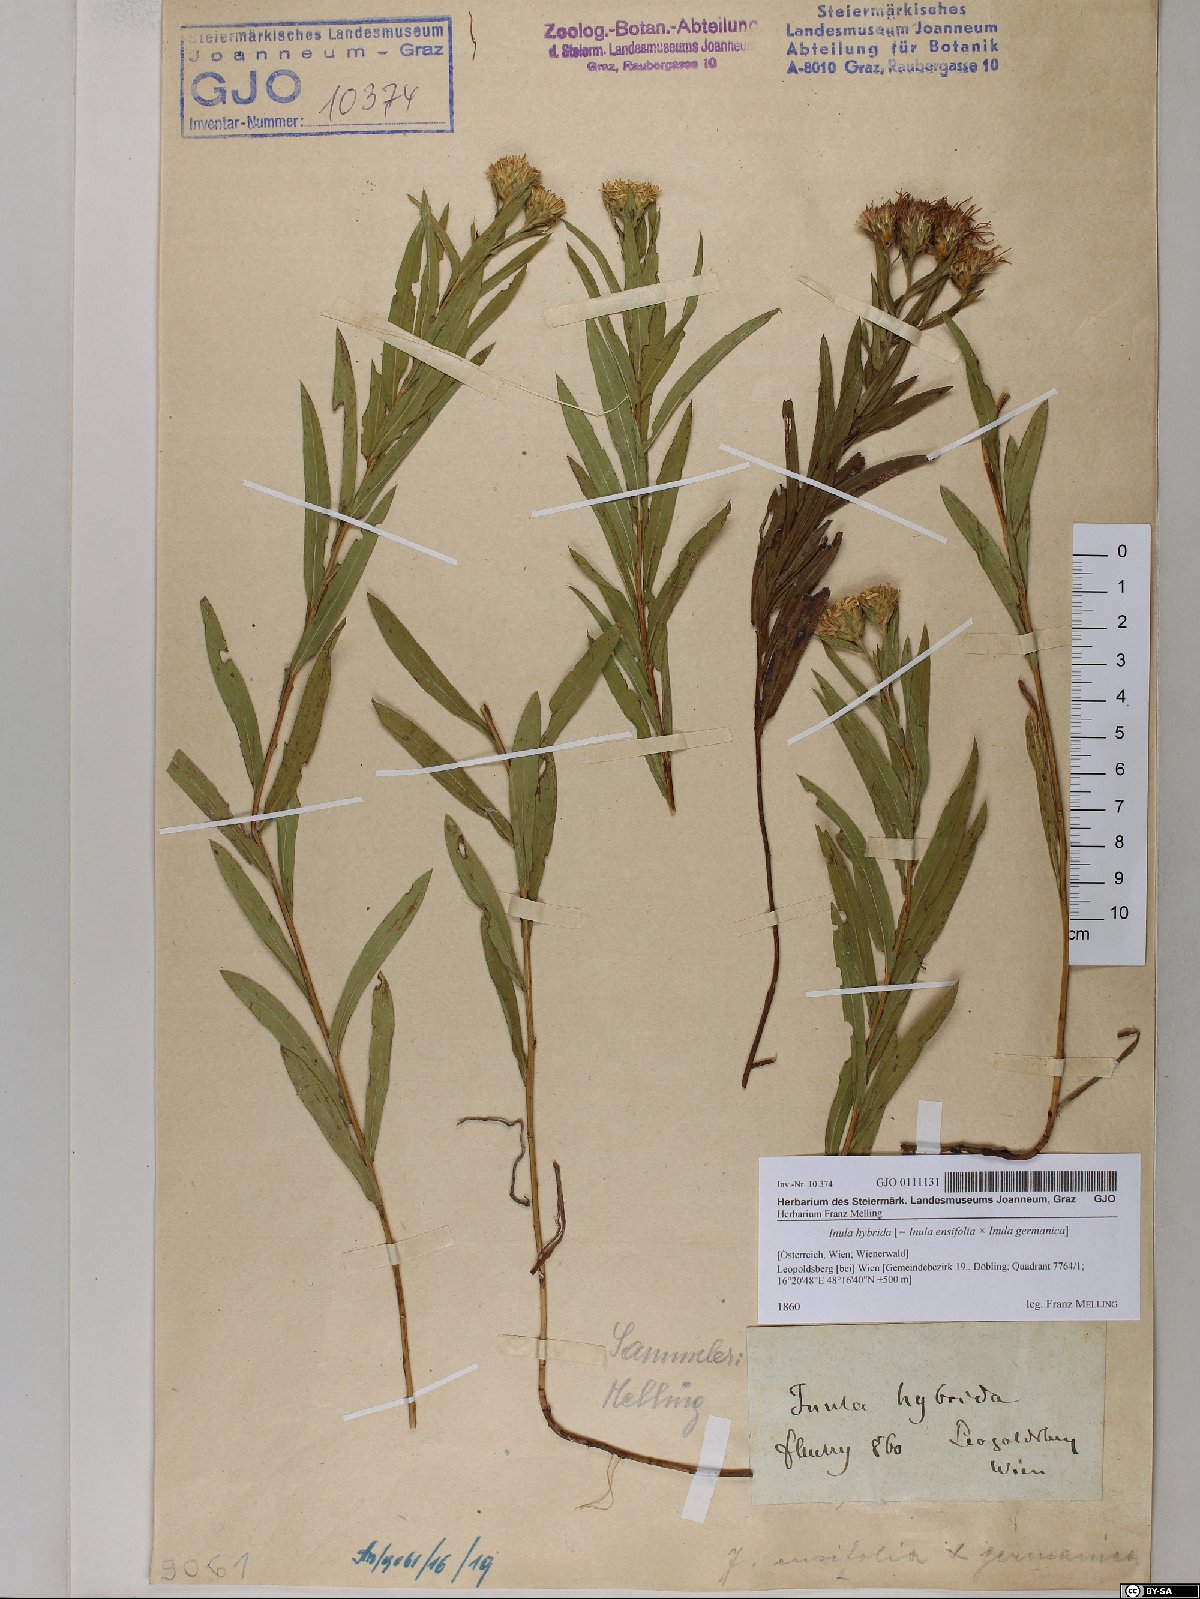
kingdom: Plantae
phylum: Tracheophyta
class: Magnoliopsida
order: Asterales
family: Asteraceae
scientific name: Asteraceae
